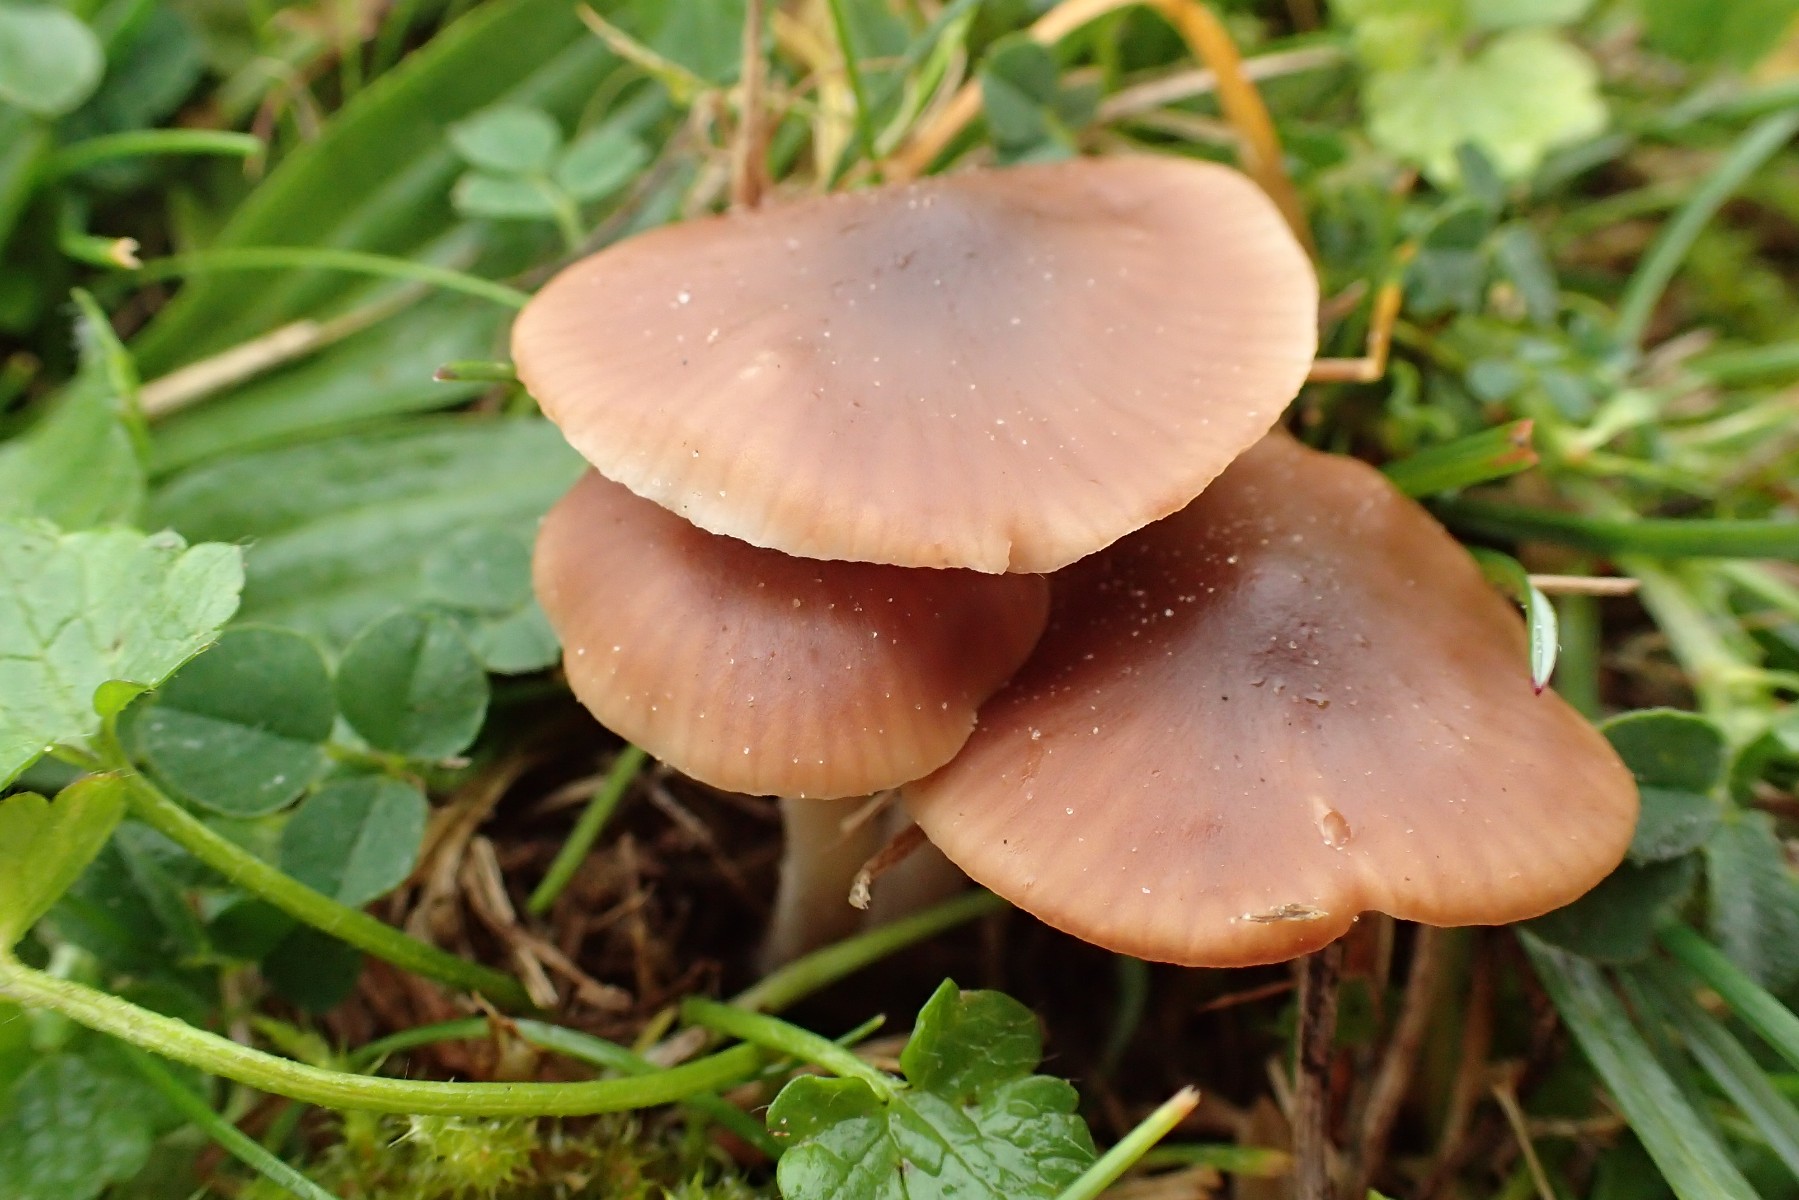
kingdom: Fungi
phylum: Basidiomycota
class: Agaricomycetes
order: Agaricales
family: Hygrophoraceae
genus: Cuphophyllus
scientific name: Cuphophyllus colemannianus
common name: rødbrun vokshat
